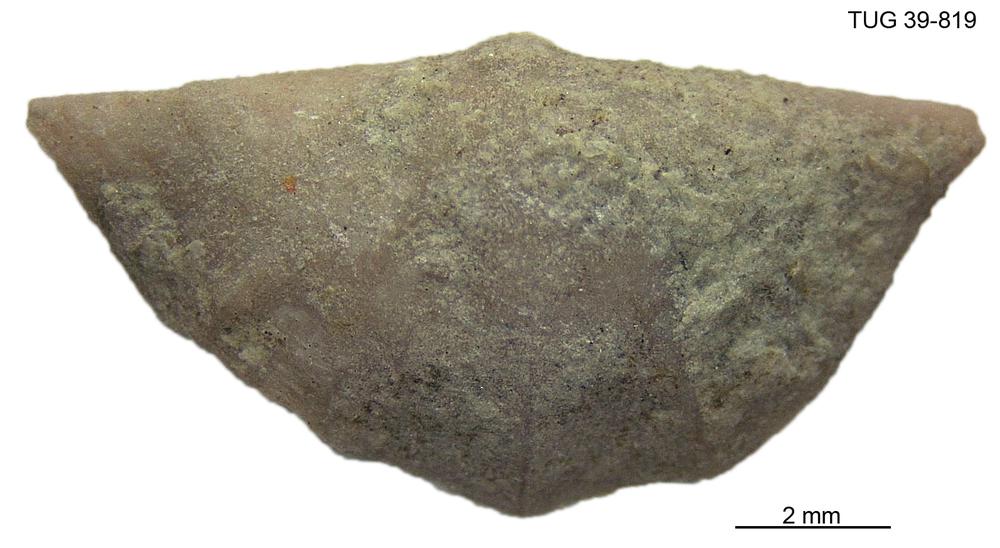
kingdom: Animalia
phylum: Brachiopoda
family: Sowerbyellidae
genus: Sowerbyella
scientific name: Sowerbyella
